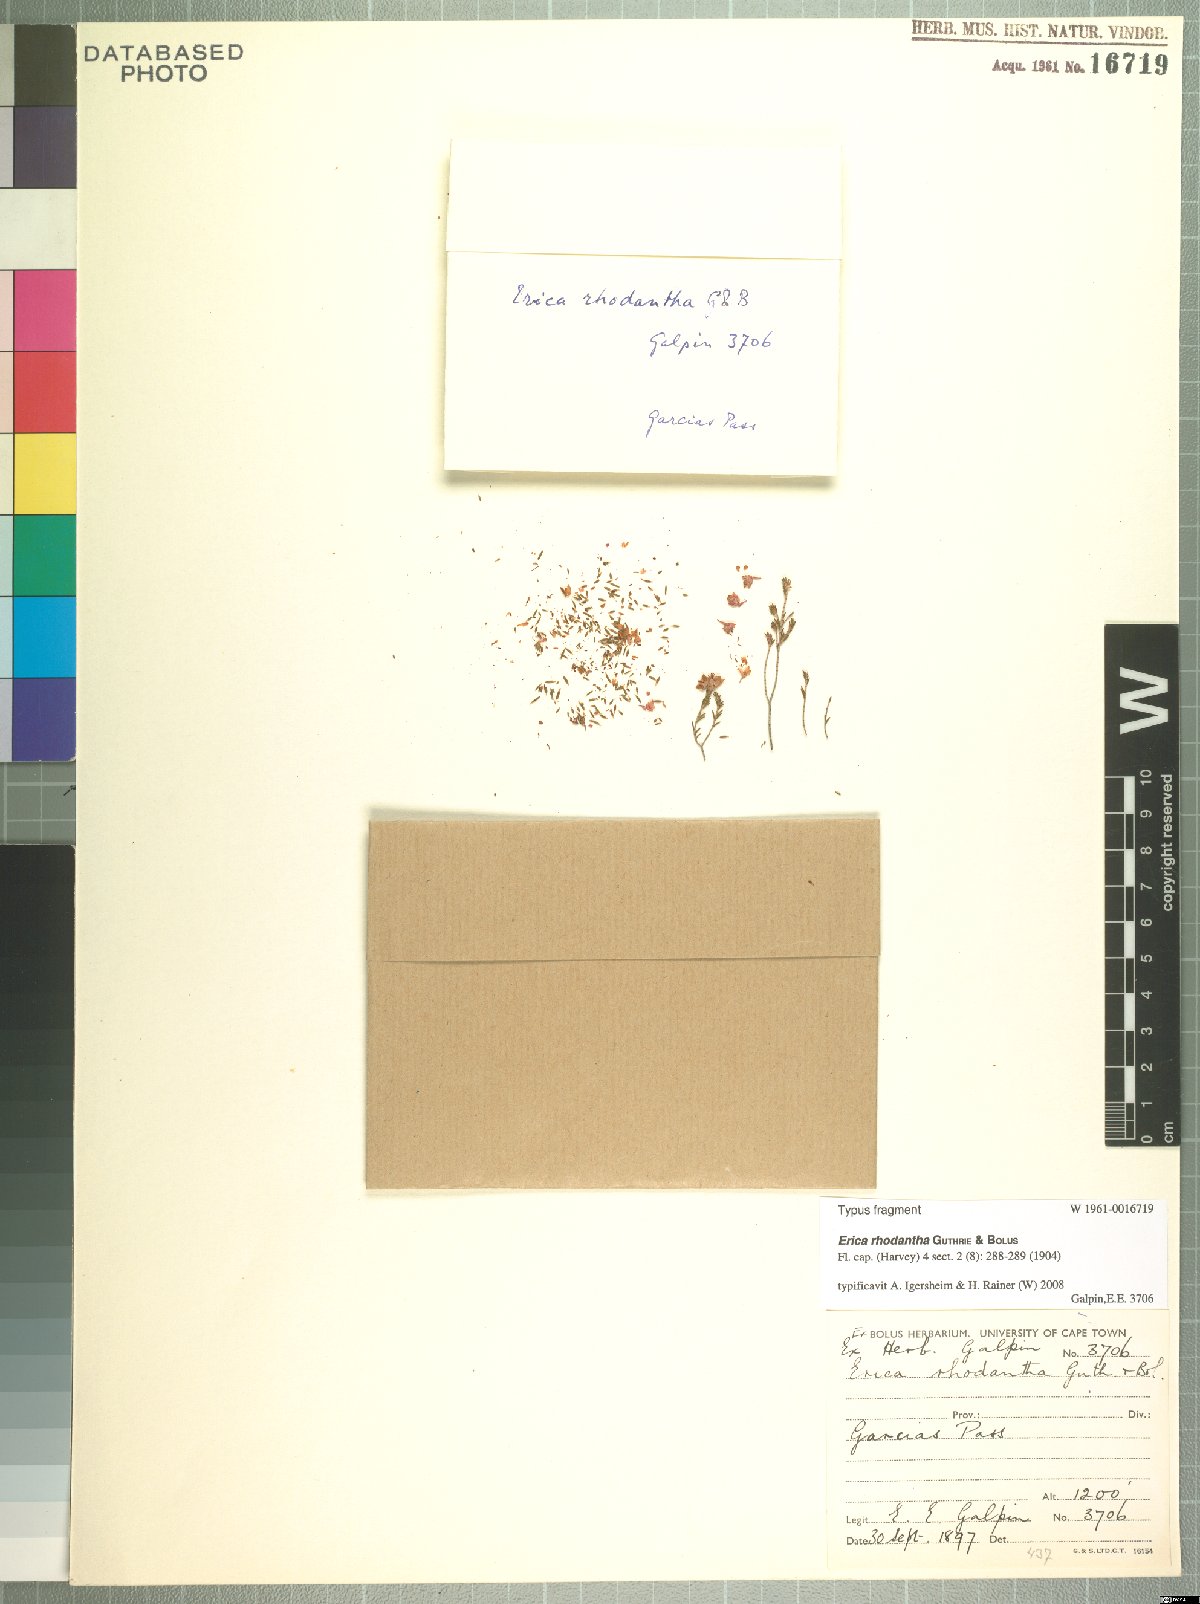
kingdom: Plantae
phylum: Tracheophyta
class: Magnoliopsida
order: Ericales
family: Ericaceae
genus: Erica
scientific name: Erica rhodantha
